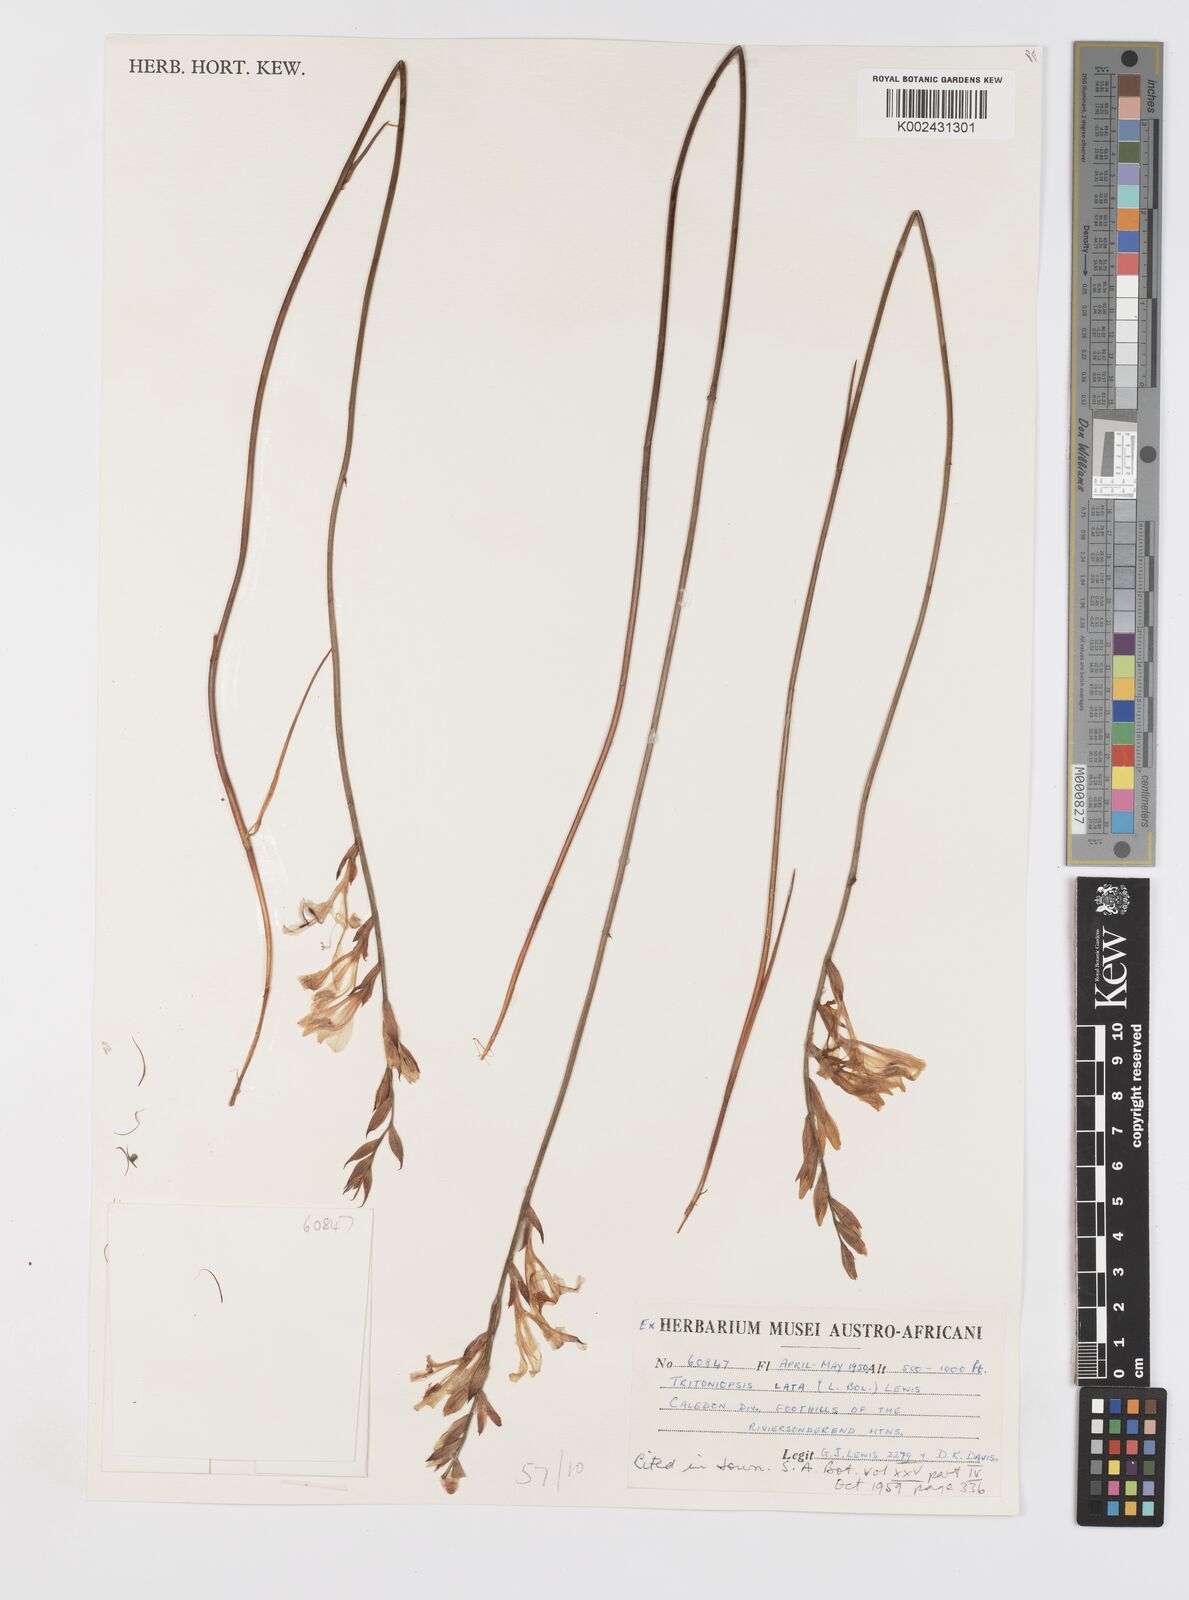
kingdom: Plantae
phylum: Tracheophyta
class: Liliopsida
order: Asparagales
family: Iridaceae
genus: Tritoniopsis
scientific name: Tritoniopsis lata
